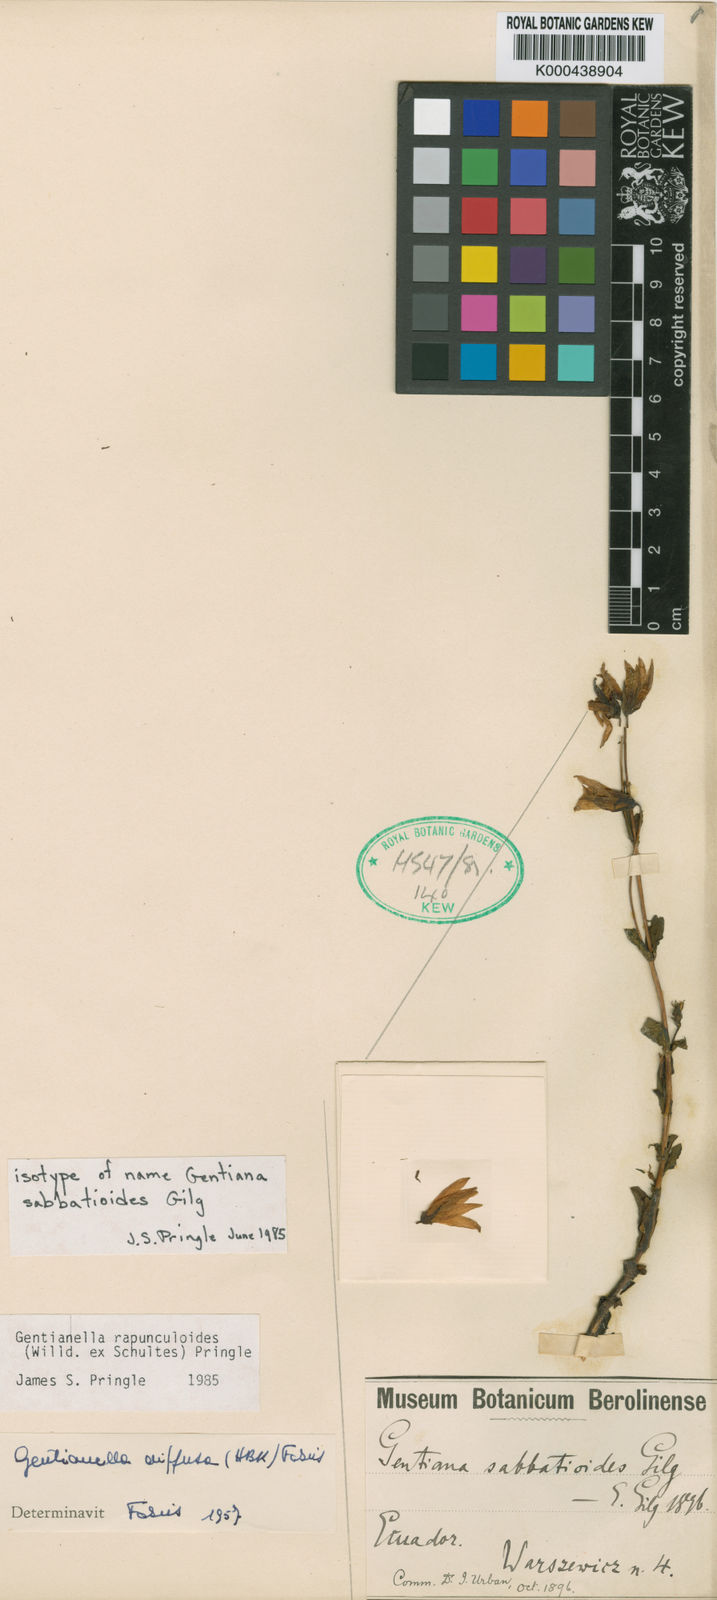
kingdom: Plantae
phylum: Tracheophyta
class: Magnoliopsida
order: Gentianales
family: Gentianaceae
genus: Gentianella
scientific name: Gentianella rapunculoides
